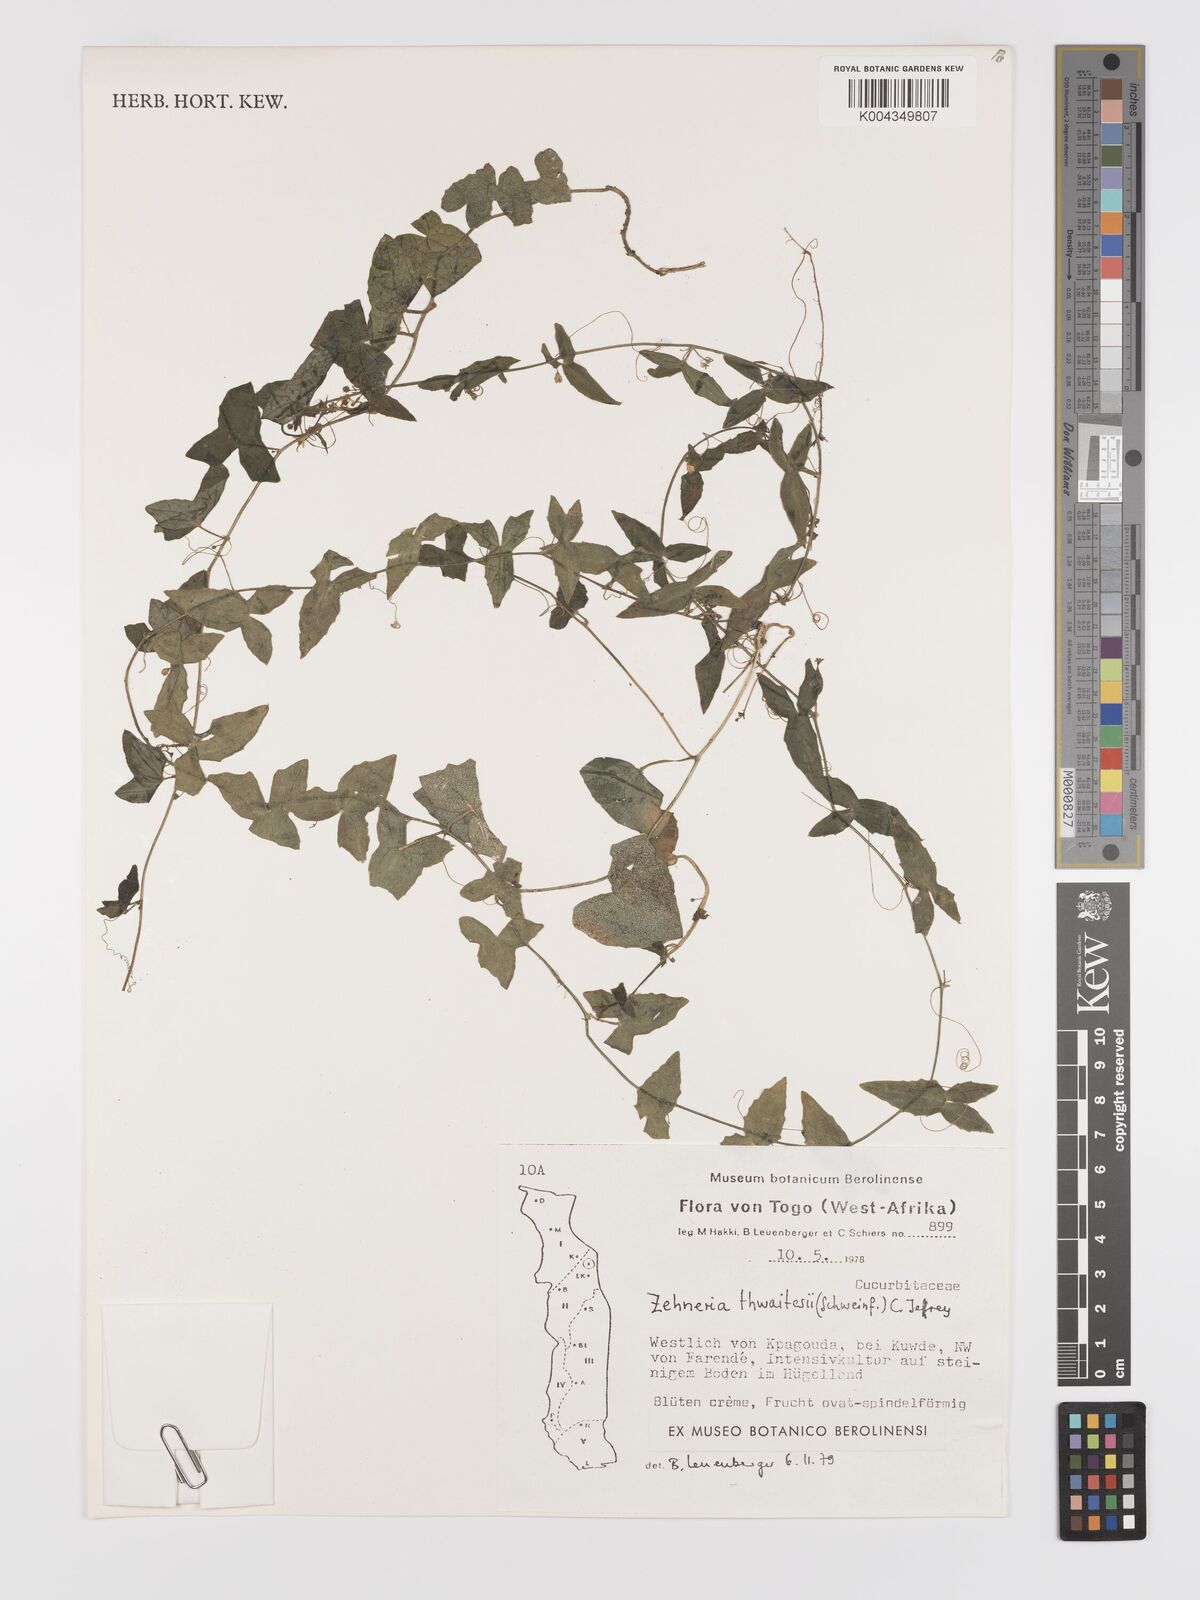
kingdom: Plantae
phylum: Tracheophyta
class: Magnoliopsida
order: Cucurbitales
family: Cucurbitaceae
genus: Zehneria
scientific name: Zehneria hallii
